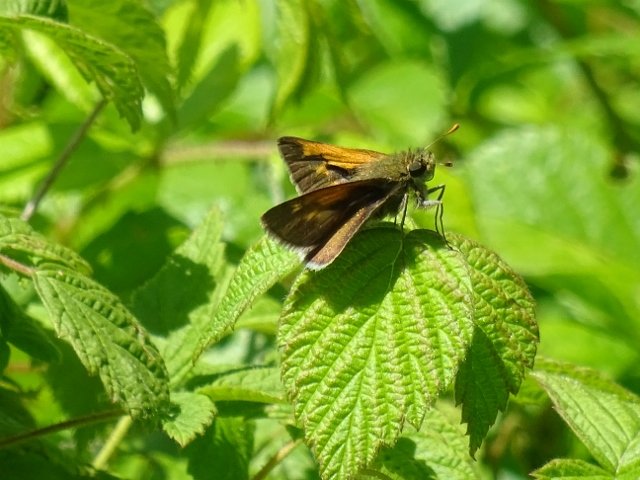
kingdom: Animalia
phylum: Arthropoda
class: Insecta
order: Lepidoptera
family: Hesperiidae
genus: Polites
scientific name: Polites themistocles
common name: Tawny-edged Skipper
